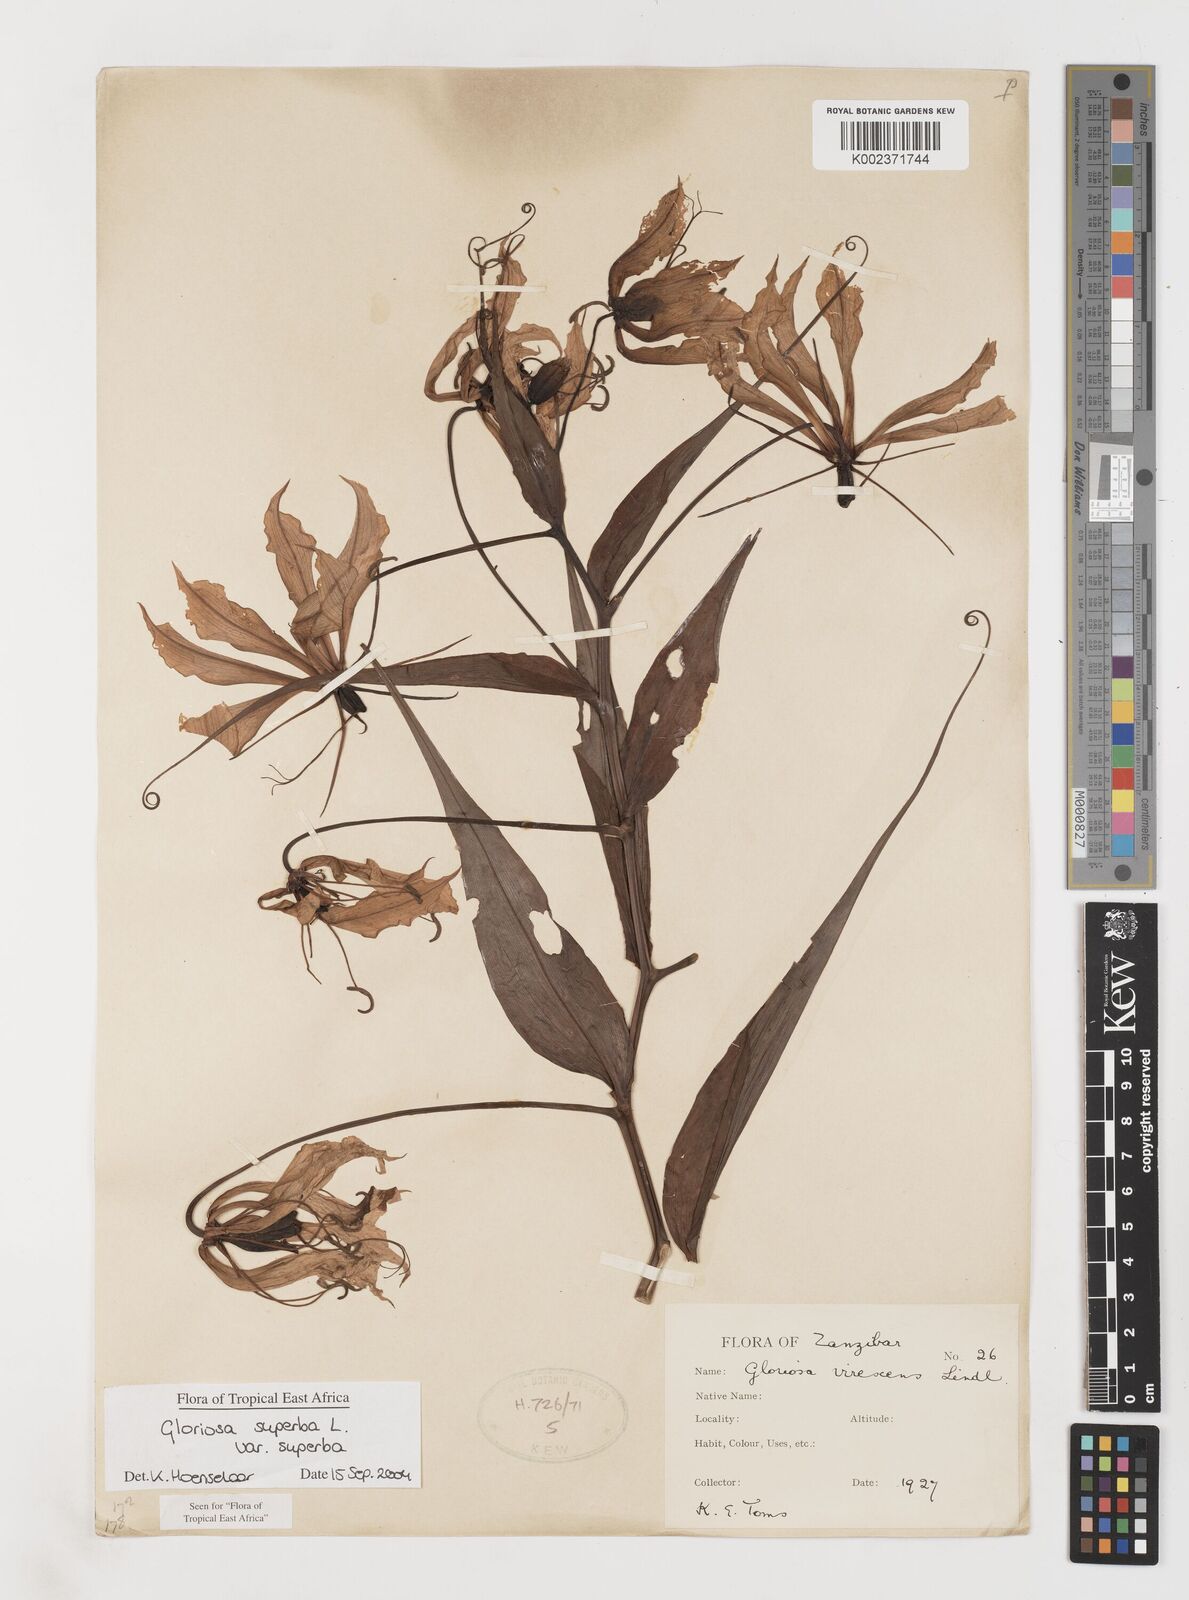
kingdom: Plantae
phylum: Tracheophyta
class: Liliopsida
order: Liliales
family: Colchicaceae
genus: Gloriosa
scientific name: Gloriosa simplex
